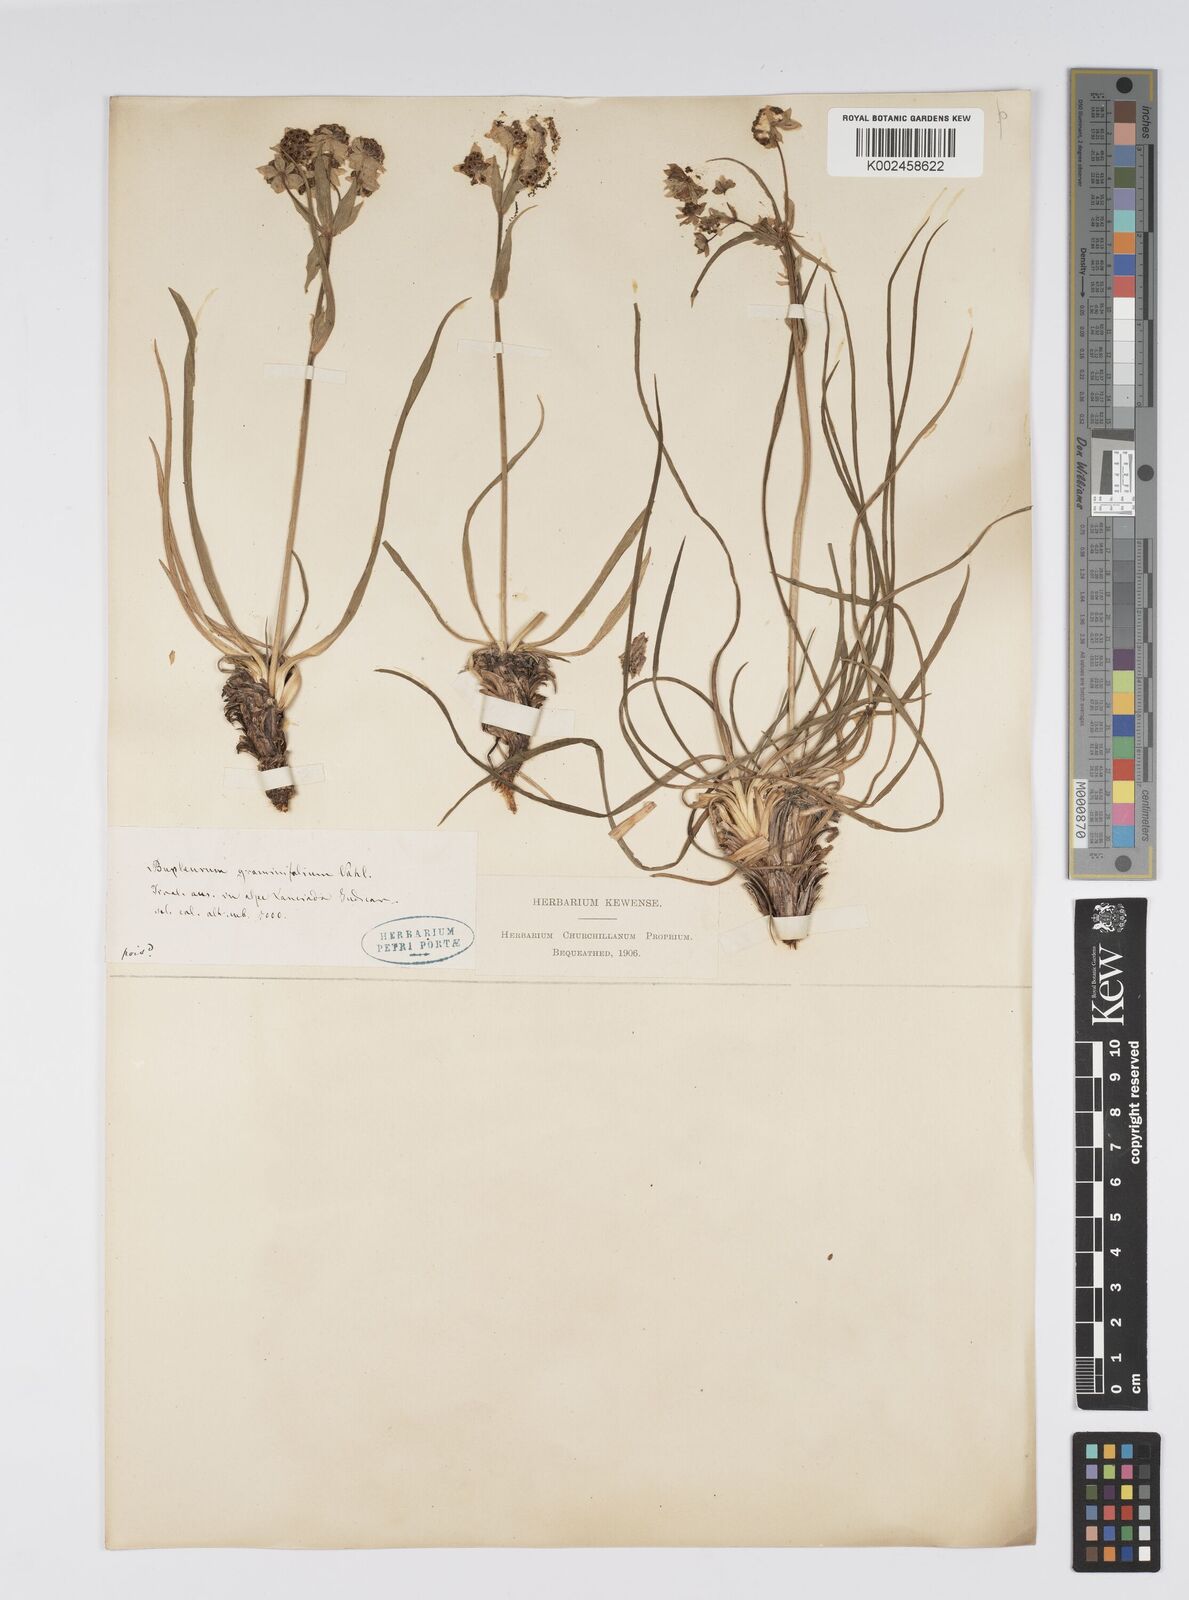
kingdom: Plantae
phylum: Tracheophyta
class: Magnoliopsida
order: Apiales
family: Apiaceae
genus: Bupleurum
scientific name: Bupleurum petraeum
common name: Rock hare's-ear
